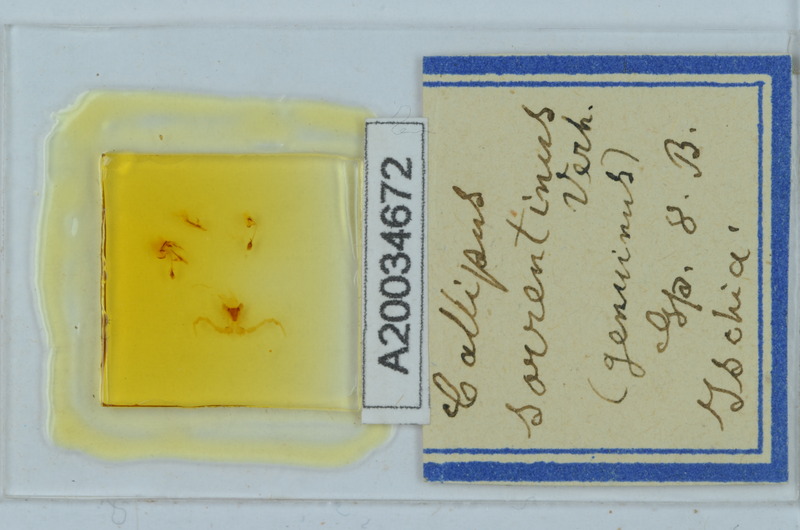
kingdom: Animalia
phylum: Arthropoda
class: Diplopoda
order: Callipodida
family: Callipodidae
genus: Callipus
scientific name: Callipus foetidissimus
